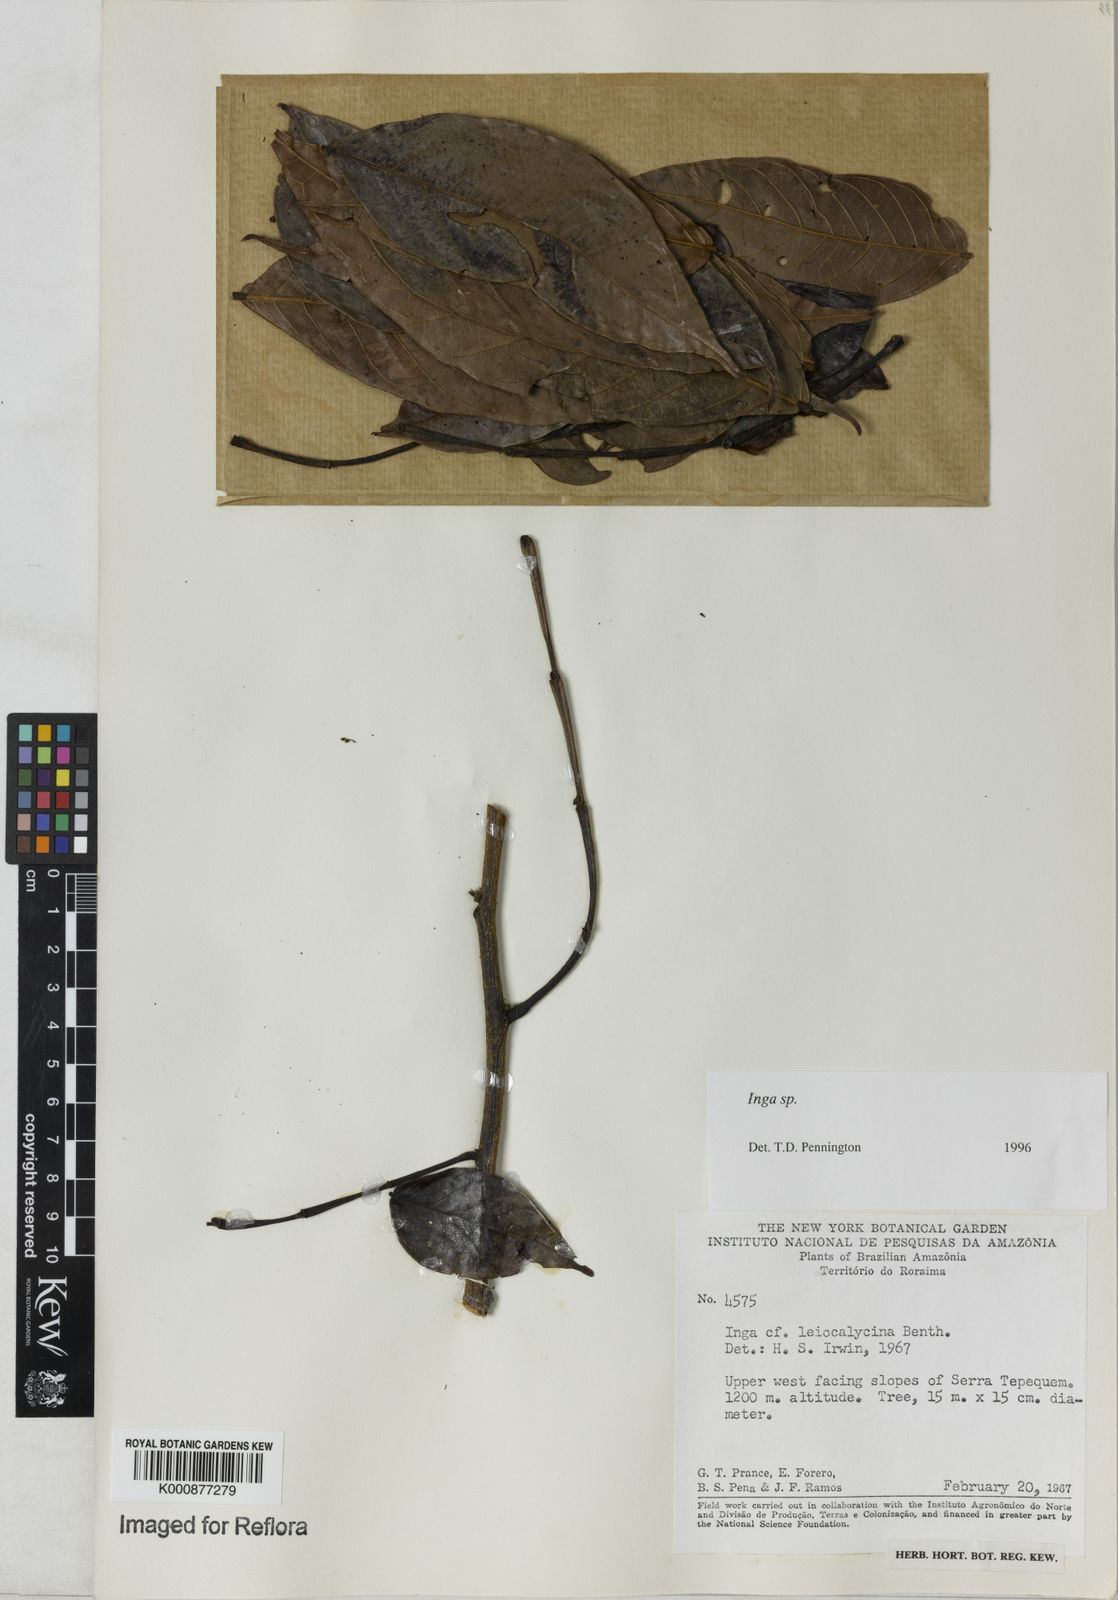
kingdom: Plantae
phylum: Tracheophyta
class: Magnoliopsida
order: Fabales
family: Fabaceae
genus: Inga
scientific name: Inga
